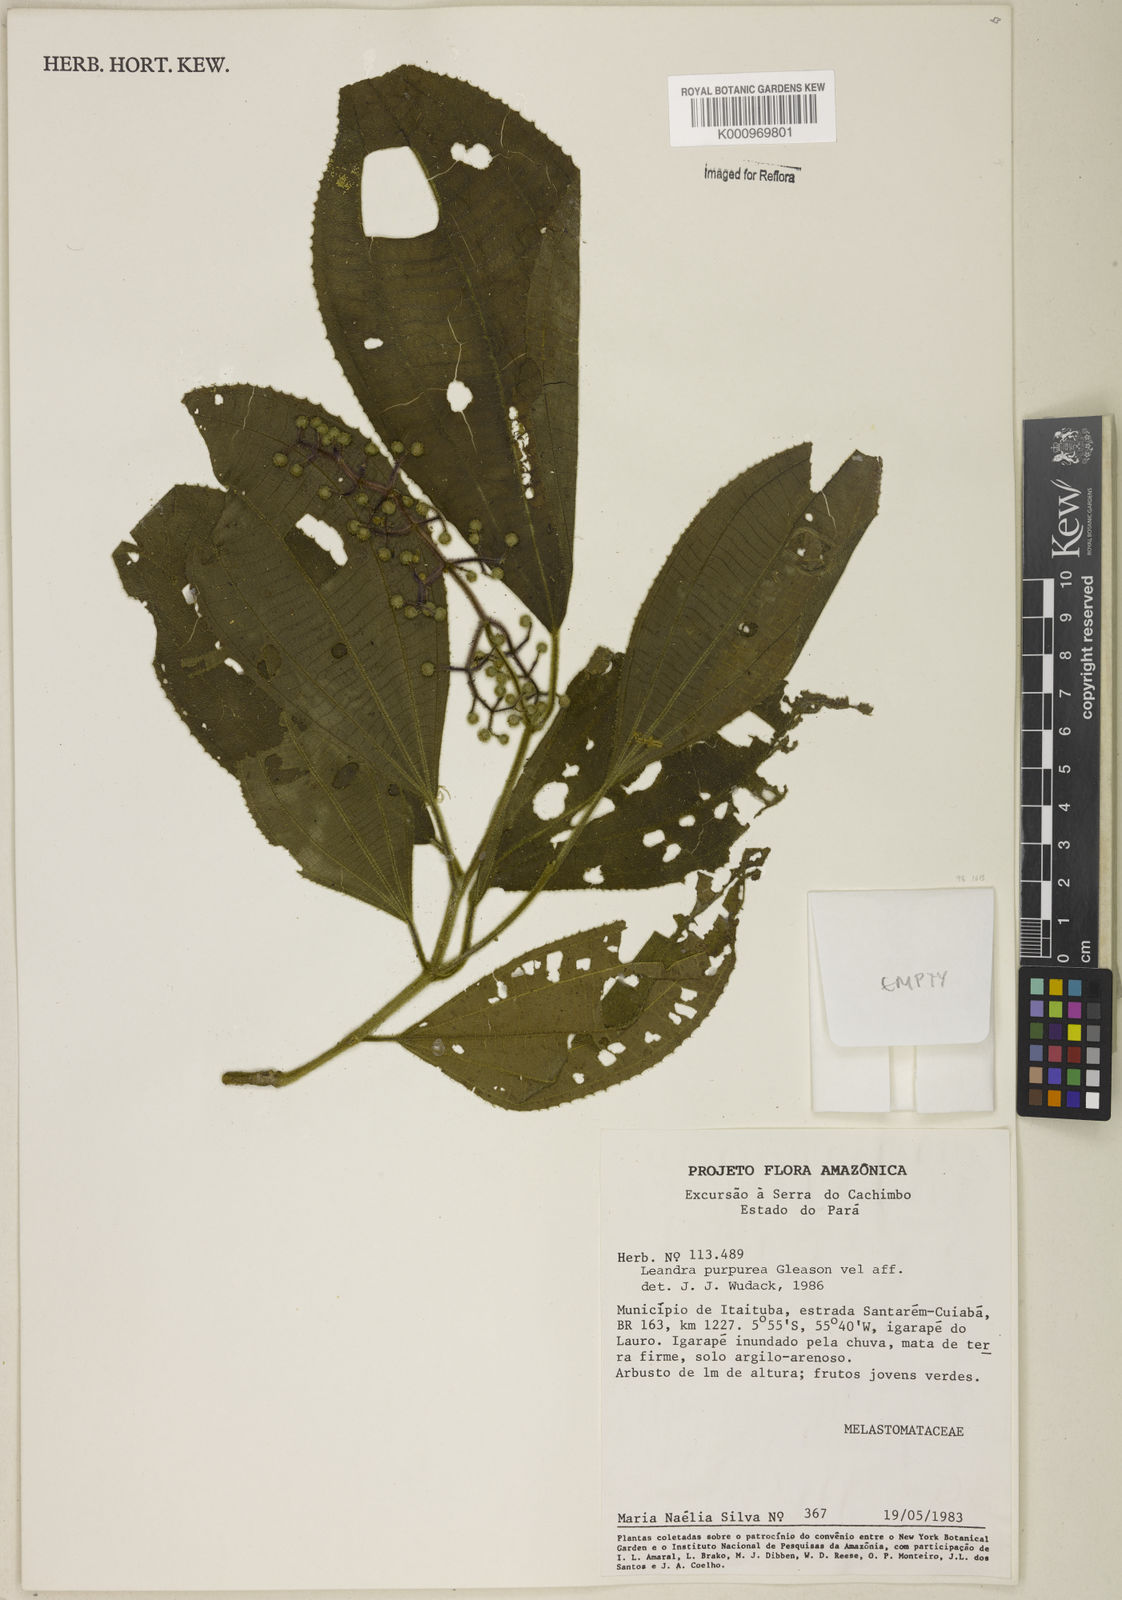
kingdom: Plantae
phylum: Tracheophyta
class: Magnoliopsida
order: Myrtales
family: Melastomataceae
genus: Miconia
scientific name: Miconia
